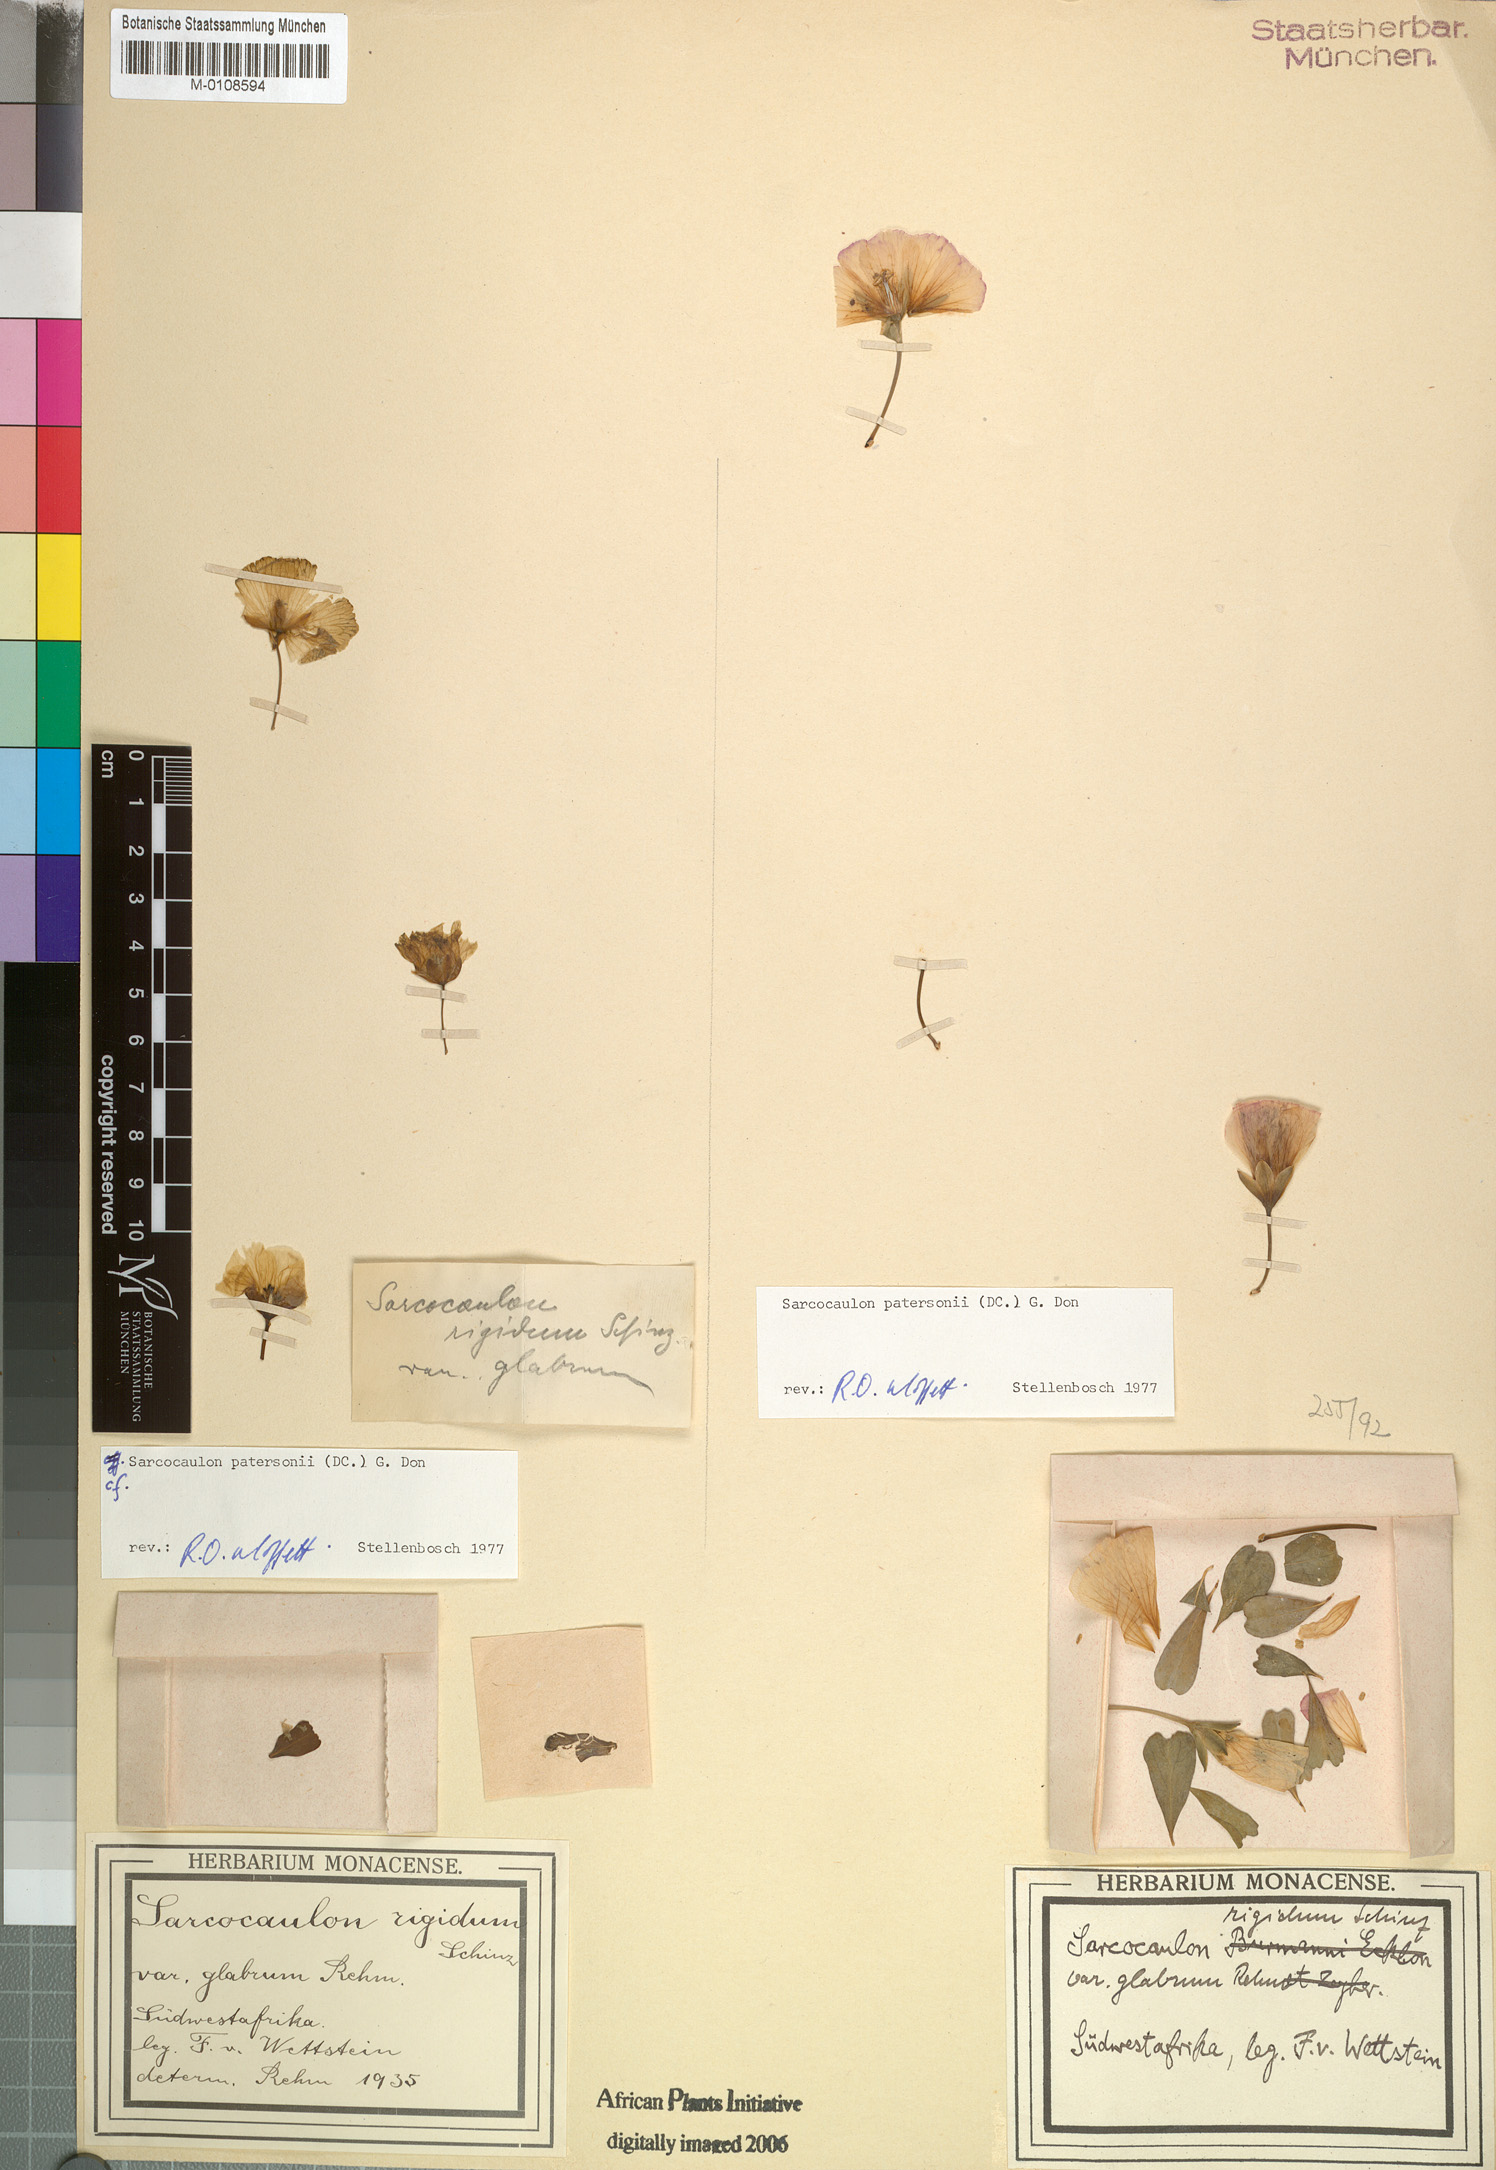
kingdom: Plantae
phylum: Tracheophyta
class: Magnoliopsida
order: Geraniales
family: Geraniaceae
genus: Monsonia
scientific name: Monsonia patersonii
